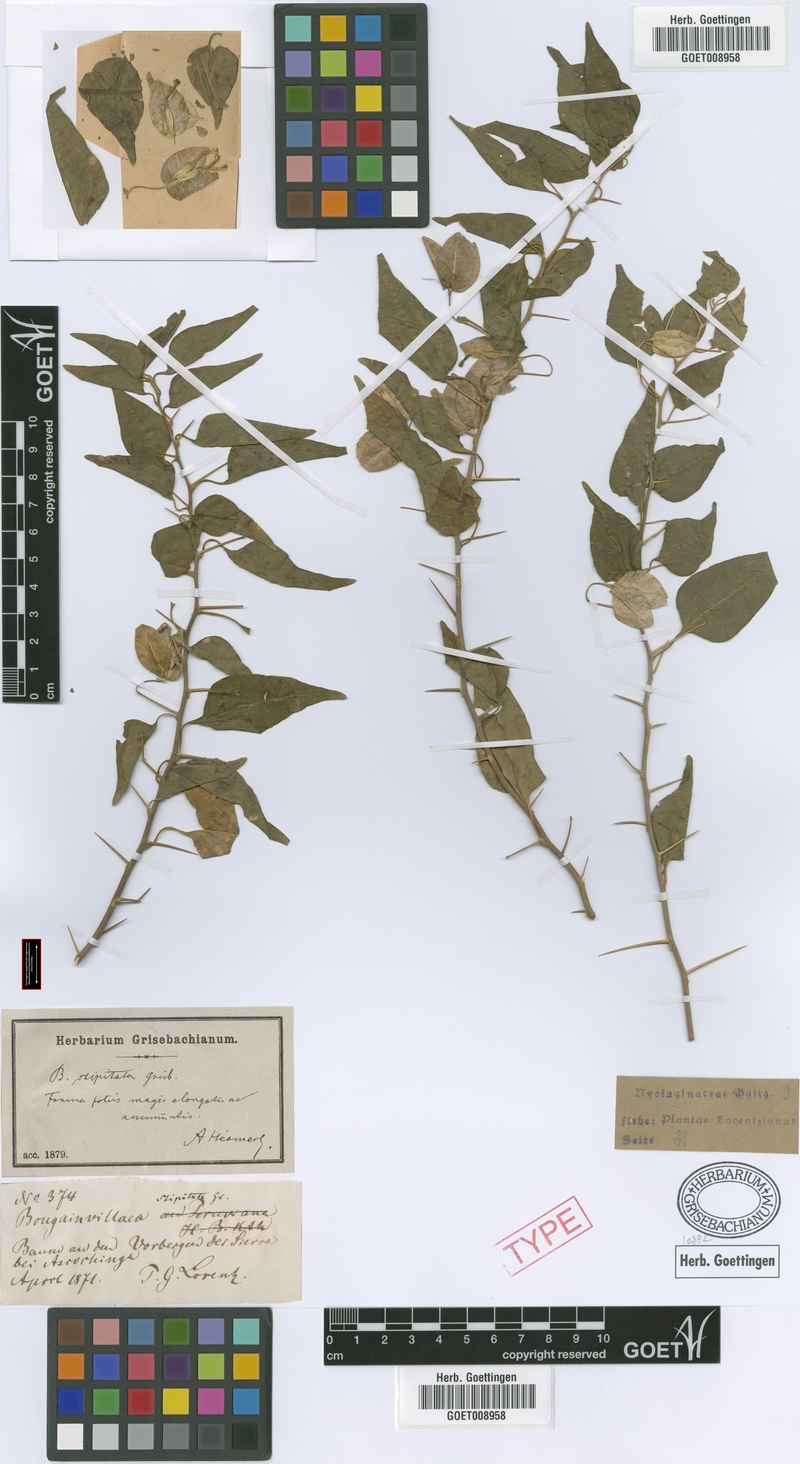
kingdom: Plantae
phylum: Tracheophyta
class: Magnoliopsida
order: Caryophyllales
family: Nyctaginaceae
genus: Bougainvillea
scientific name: Bougainvillea stipitata
